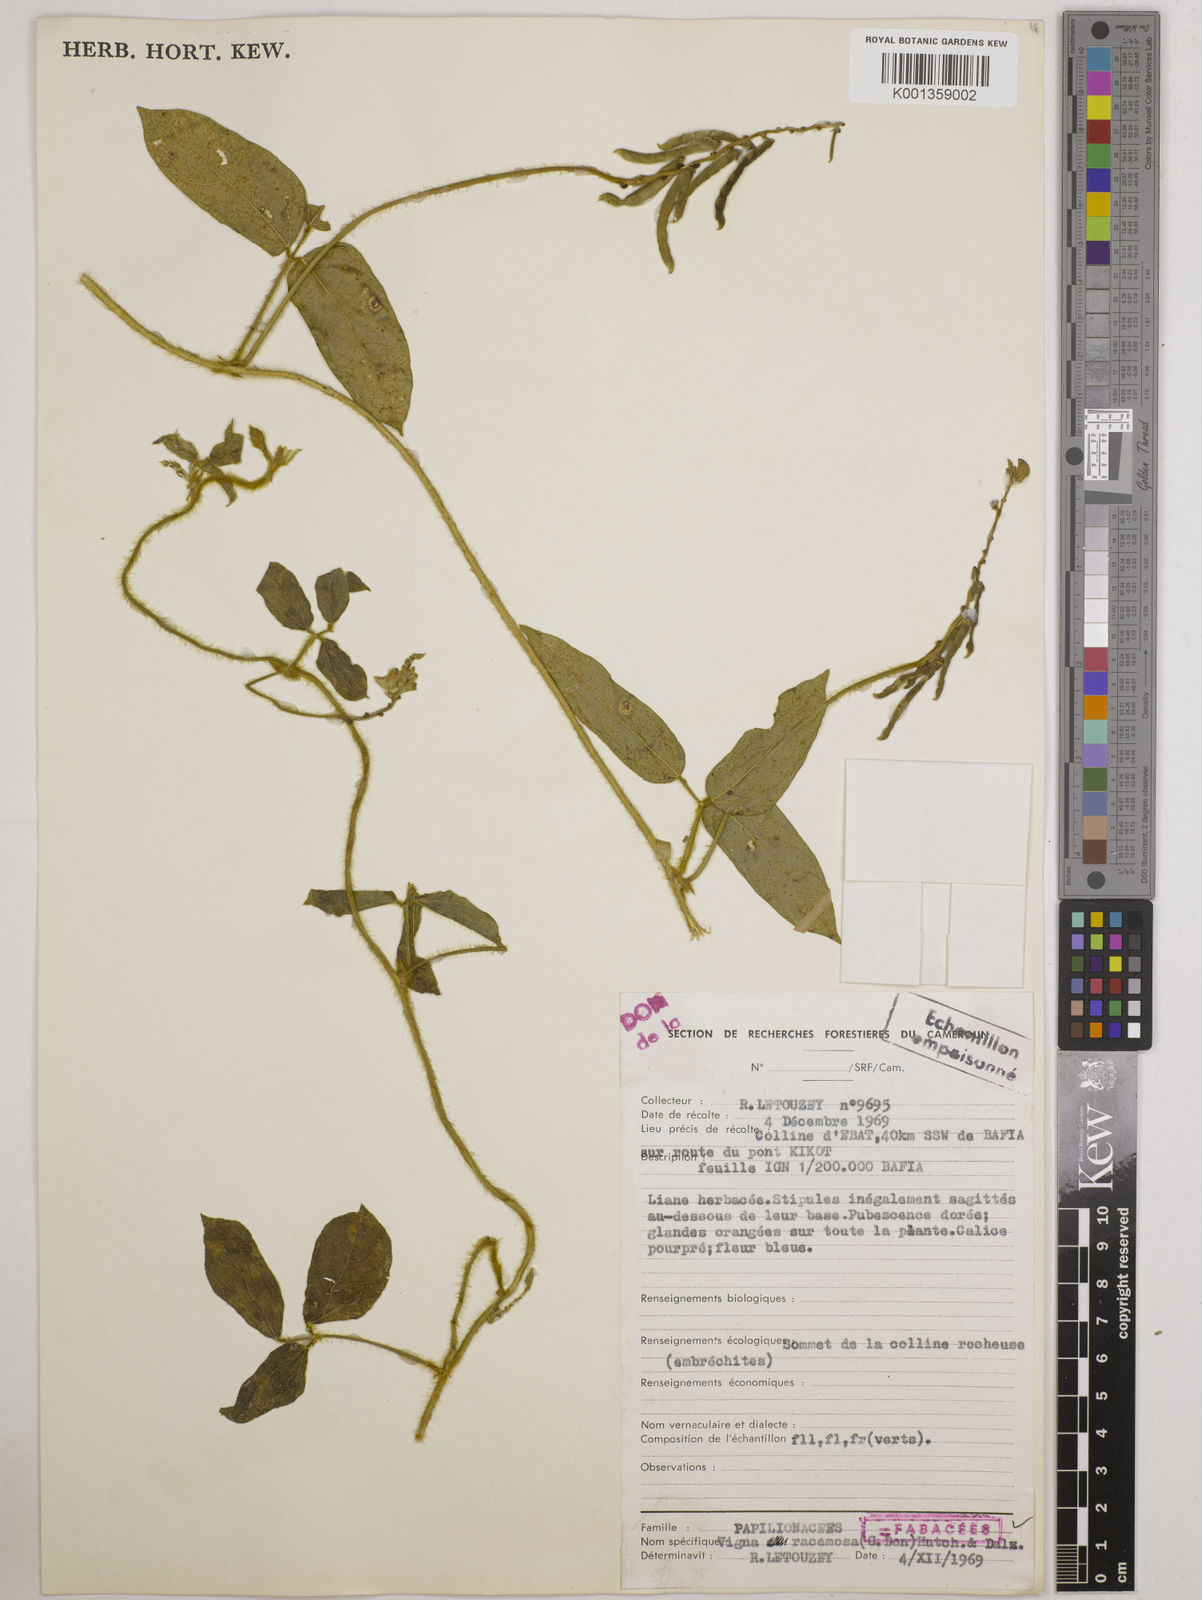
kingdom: Plantae
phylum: Tracheophyta
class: Magnoliopsida
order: Fabales
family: Fabaceae
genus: Vigna
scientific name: Vigna racemosa
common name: Beans not eaten
